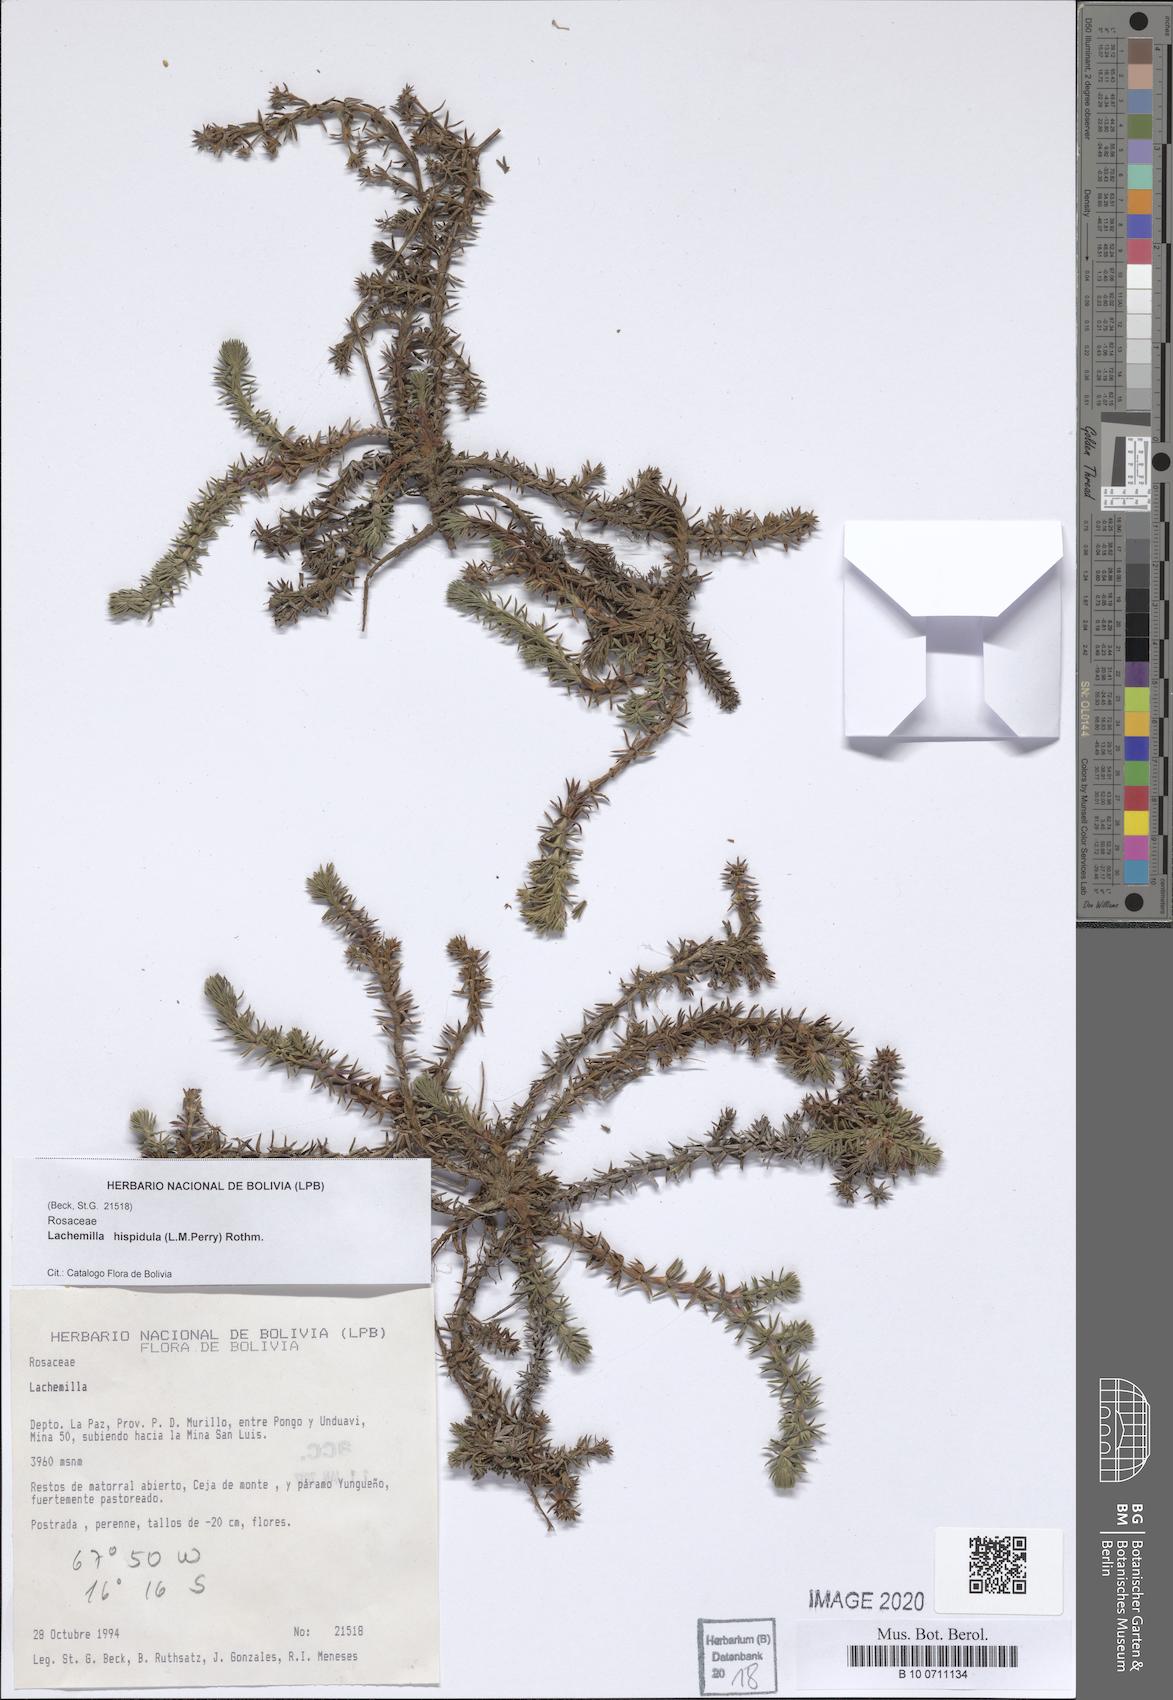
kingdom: Plantae
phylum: Tracheophyta
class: Magnoliopsida
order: Rosales
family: Rosaceae
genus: Lachemilla
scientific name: Lachemilla hispidula
